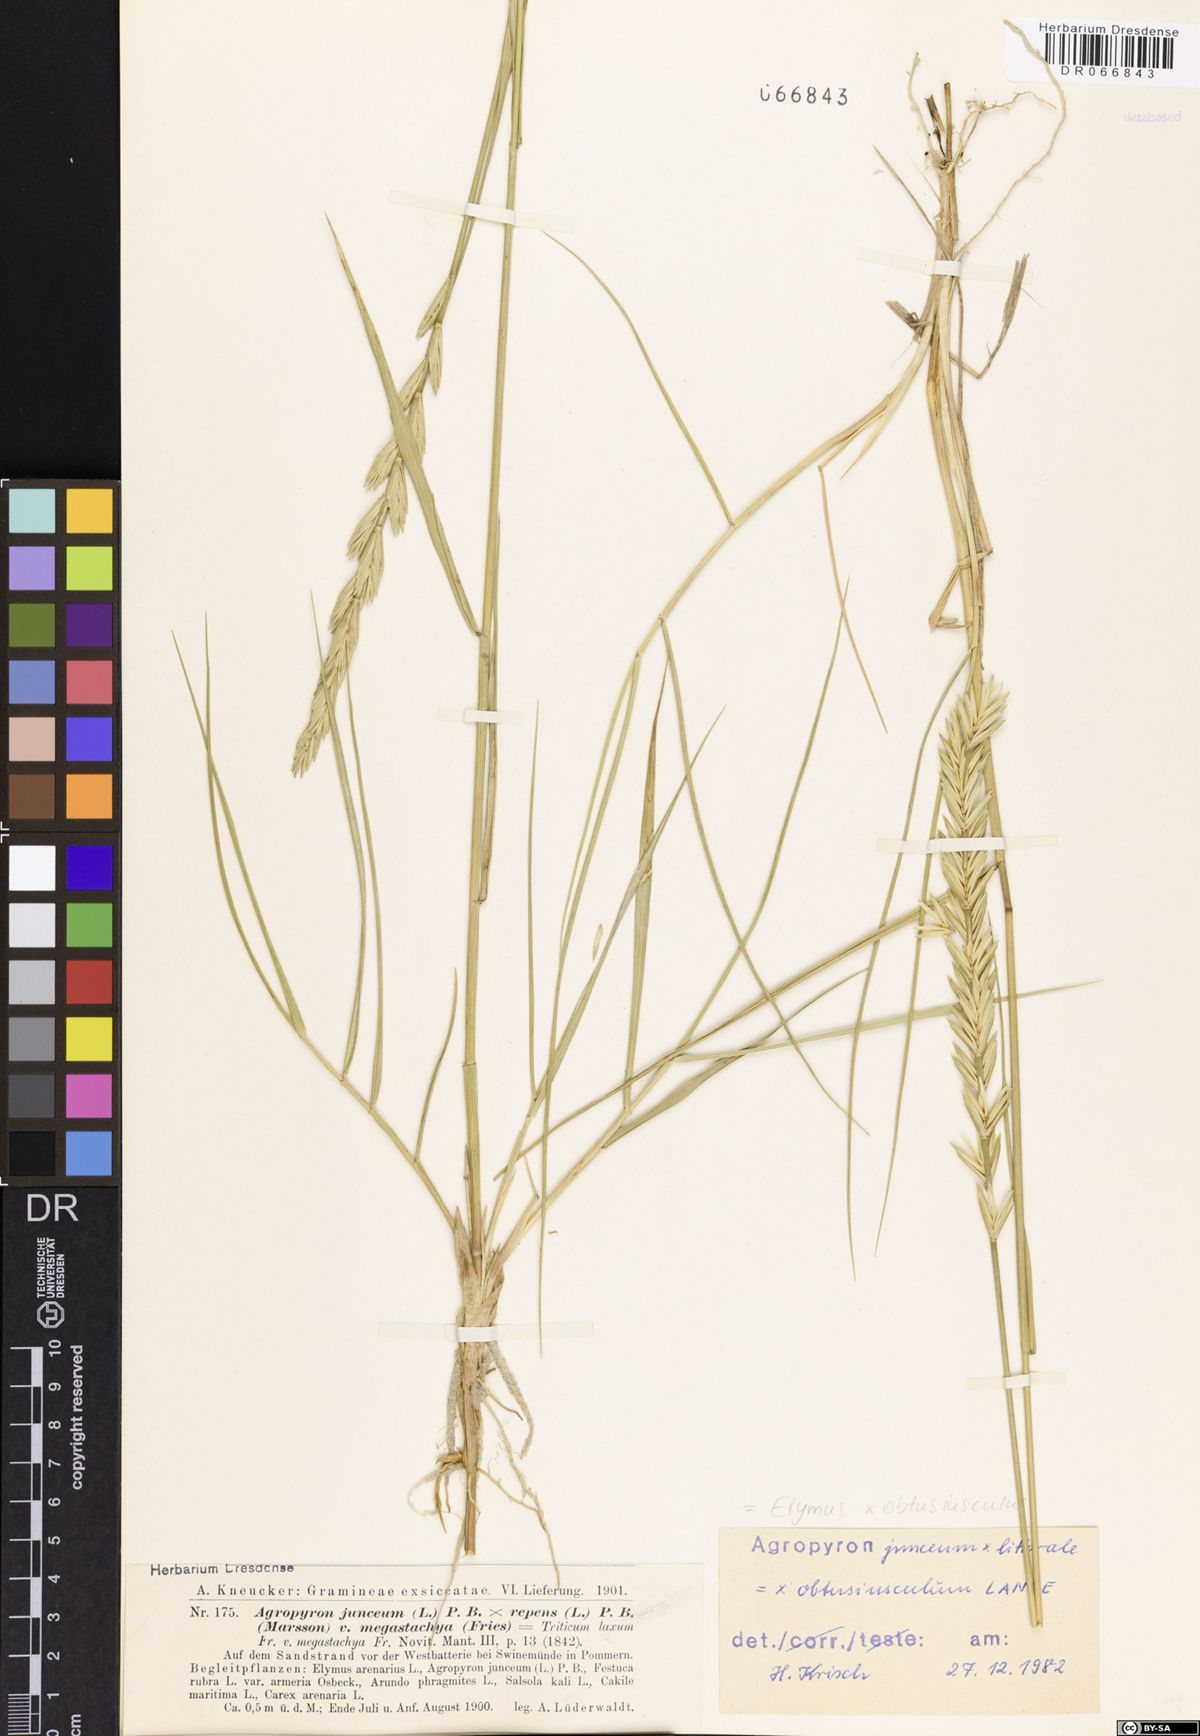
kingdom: Plantae
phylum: Tracheophyta
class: Liliopsida
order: Poales
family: Poaceae
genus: Thinoelymus
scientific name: Thinoelymus obtusiusculus
